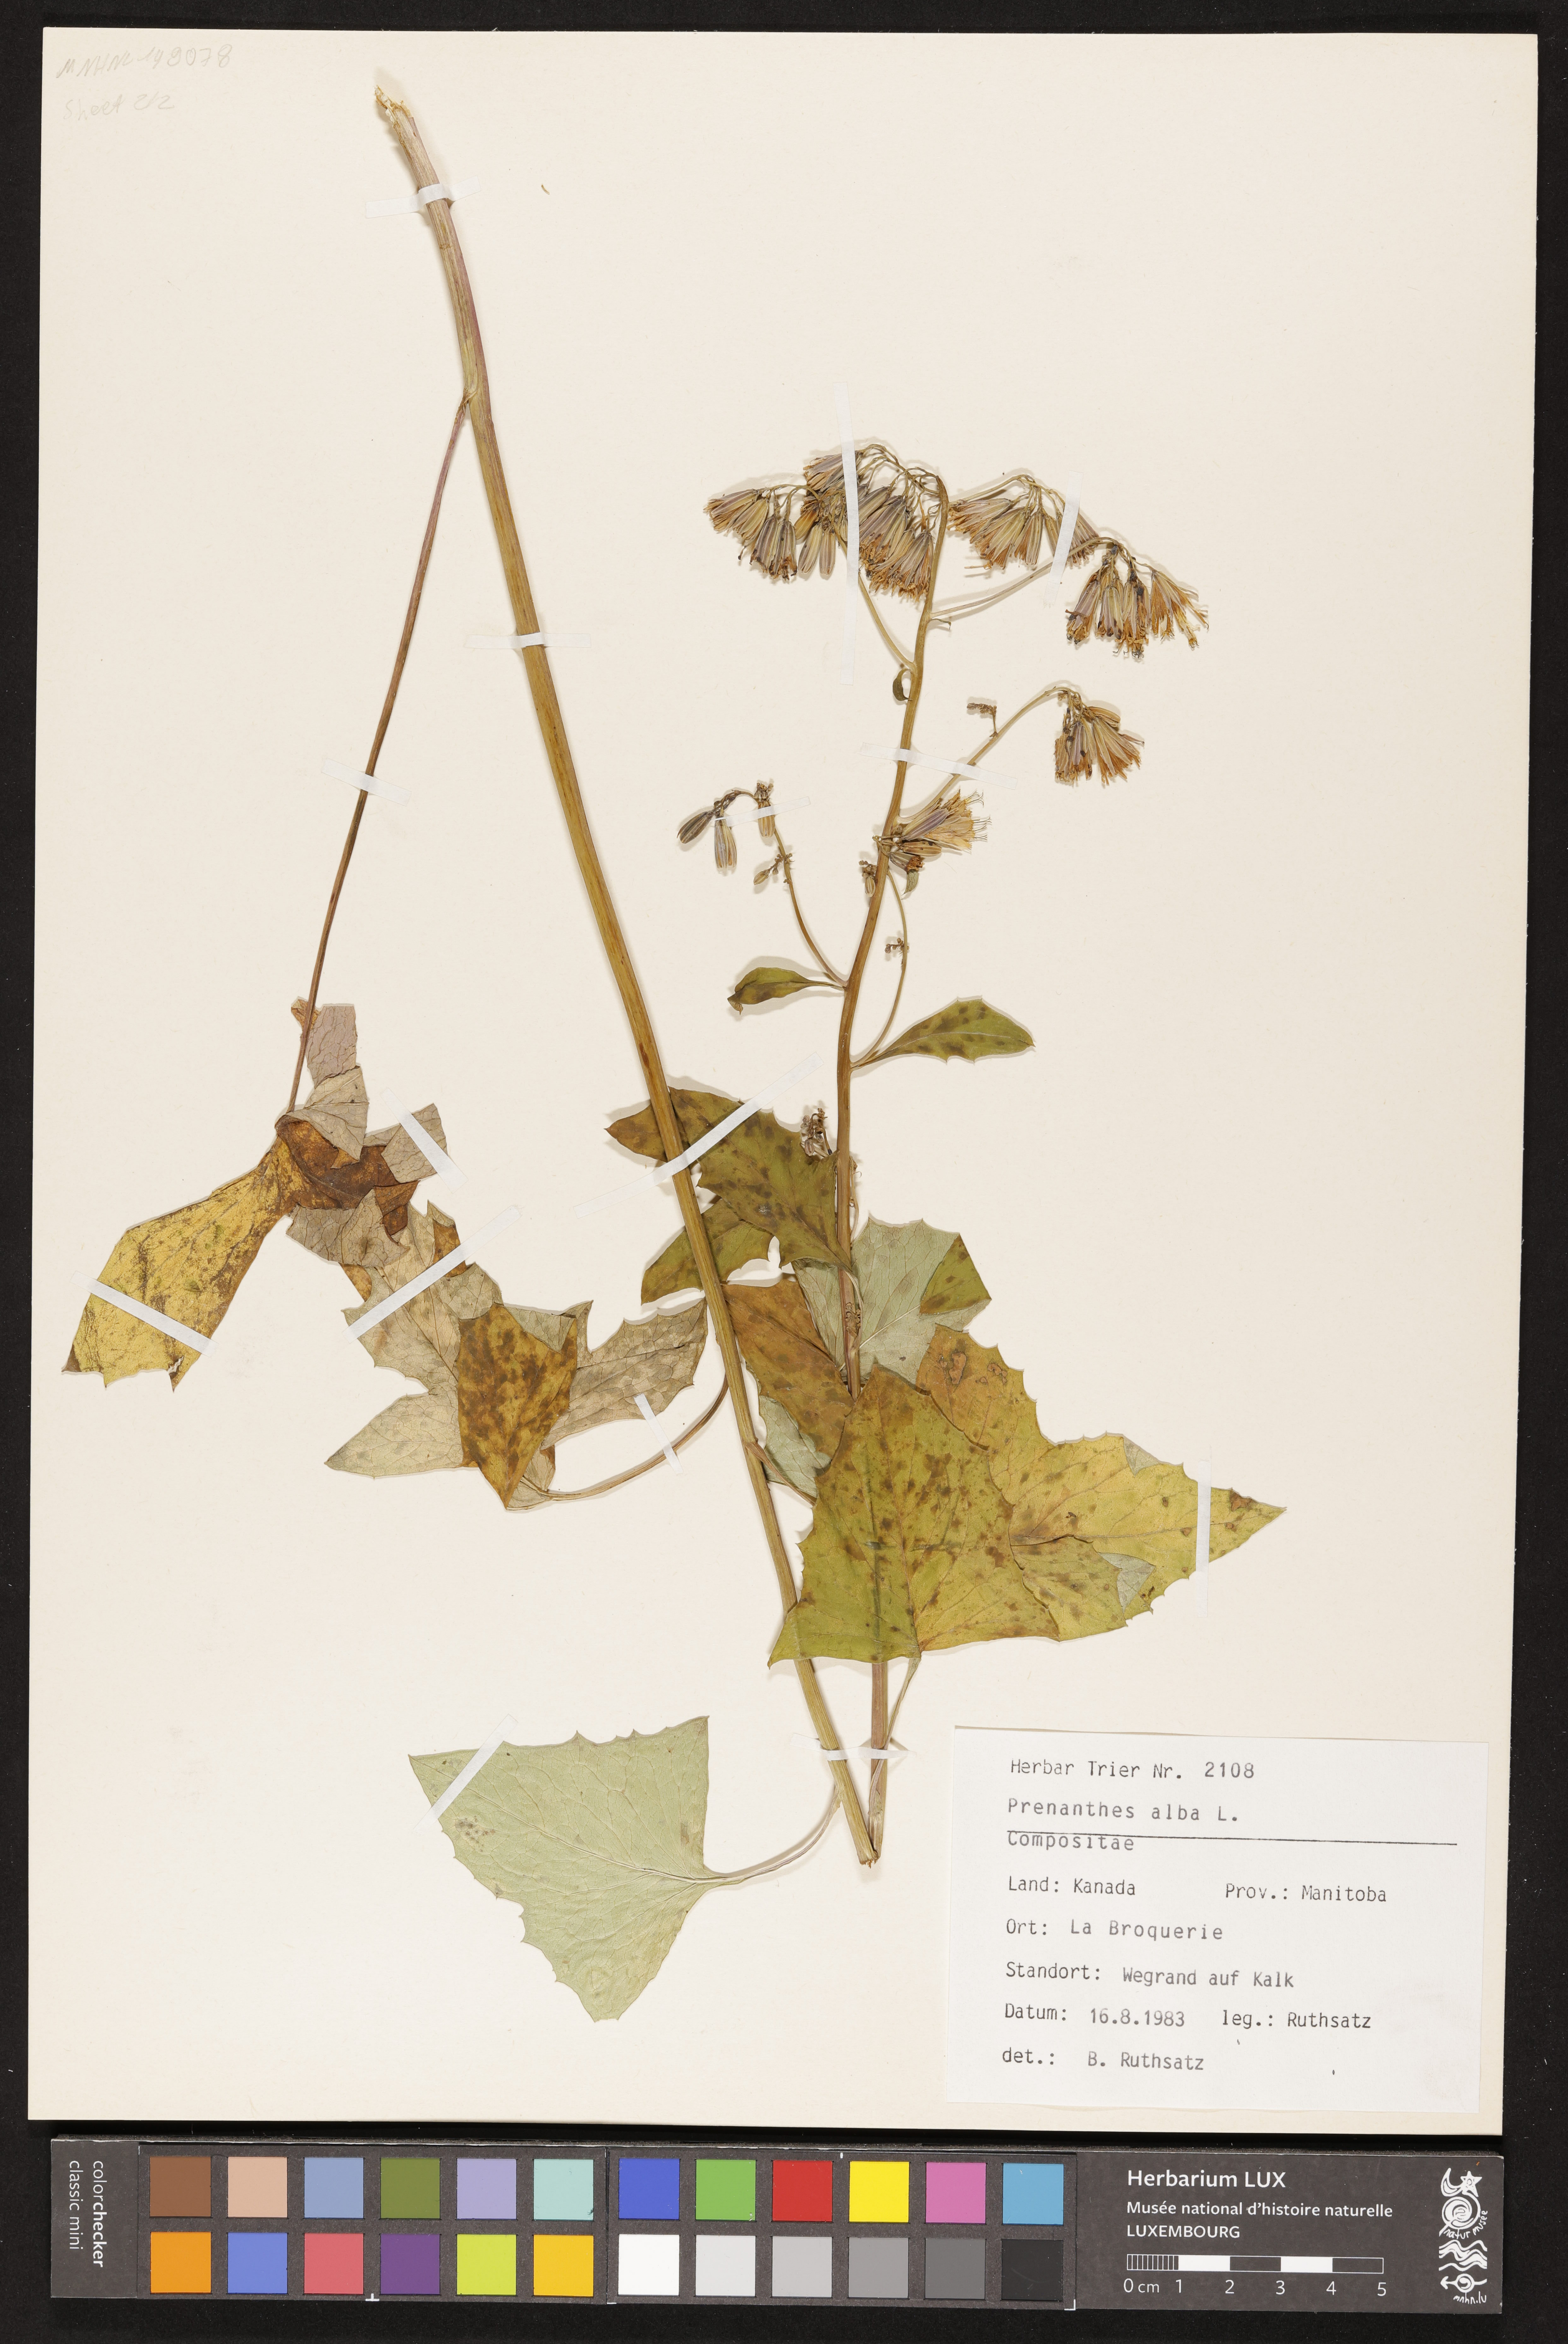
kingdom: Plantae
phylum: Tracheophyta
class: Magnoliopsida
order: Asterales
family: Asteraceae
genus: Nabalus
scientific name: Nabalus albus
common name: White rattlesnakeroot
